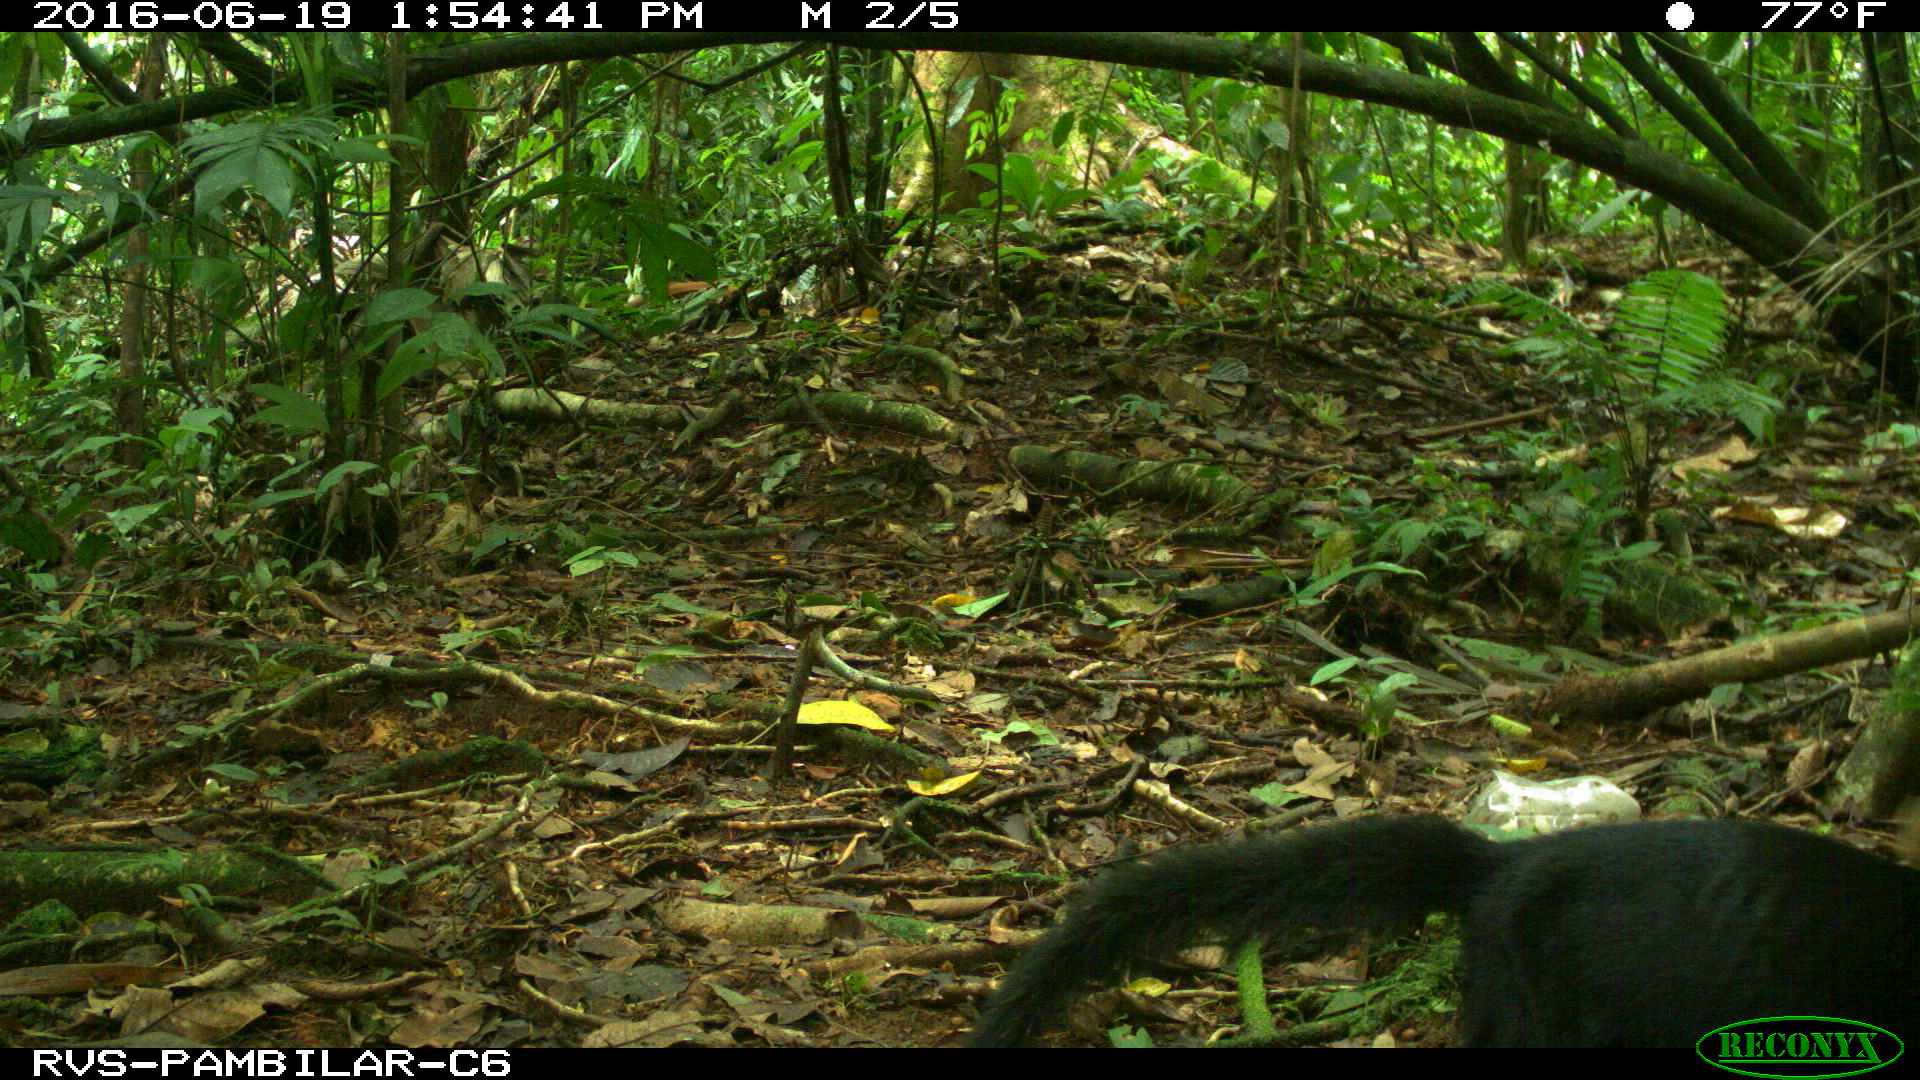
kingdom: Animalia
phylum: Chordata
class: Mammalia
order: Carnivora
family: Mustelidae
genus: Eira
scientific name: Eira barbara
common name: Tayra
